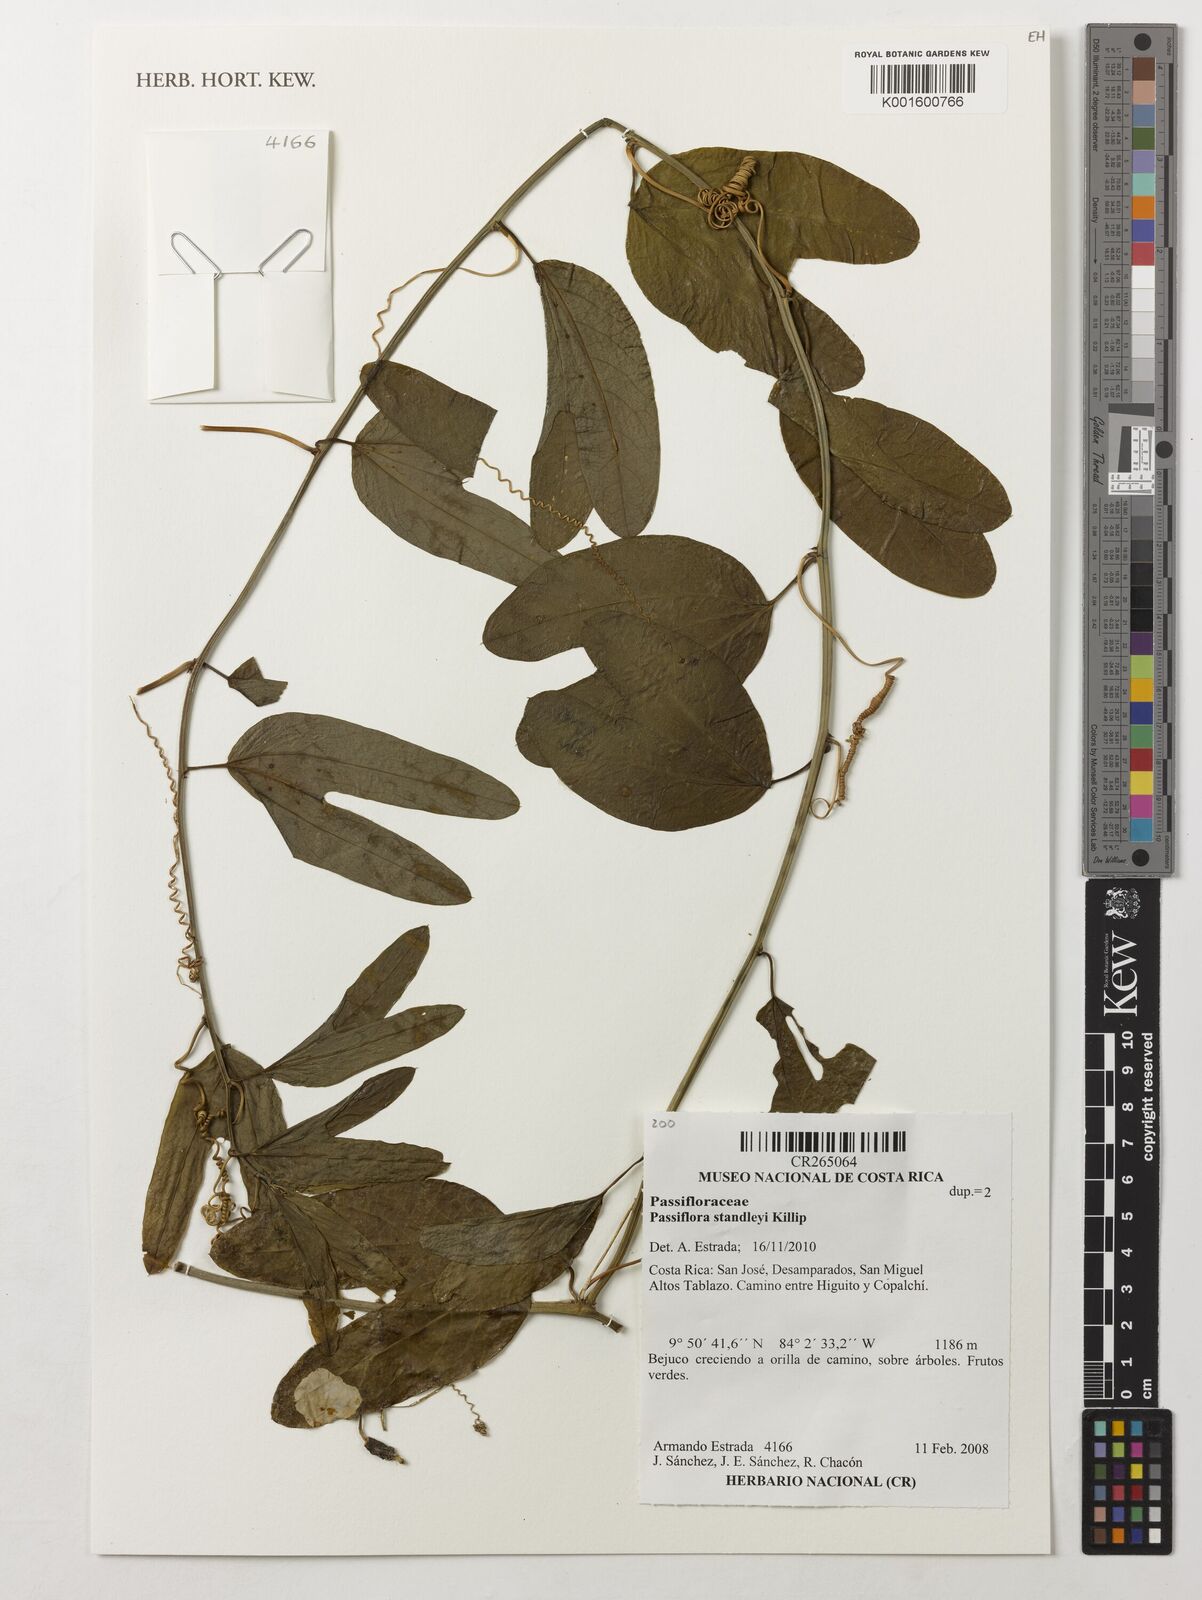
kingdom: Plantae
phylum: Tracheophyta
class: Magnoliopsida
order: Malpighiales
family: Passifloraceae
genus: Passiflora
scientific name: Passiflora standleyi
